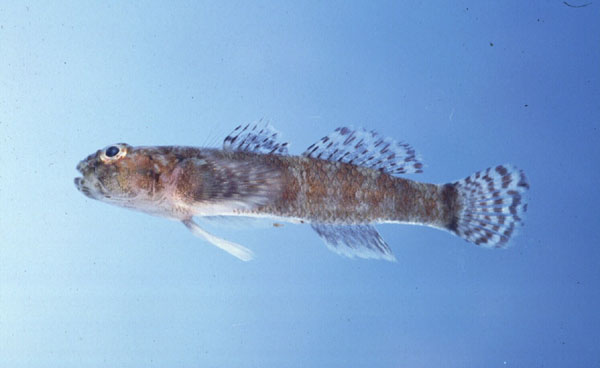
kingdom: Animalia
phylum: Chordata
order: Perciformes
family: Gobiidae
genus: Bathygobius
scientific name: Bathygobius laddi
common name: Brownboy goby
